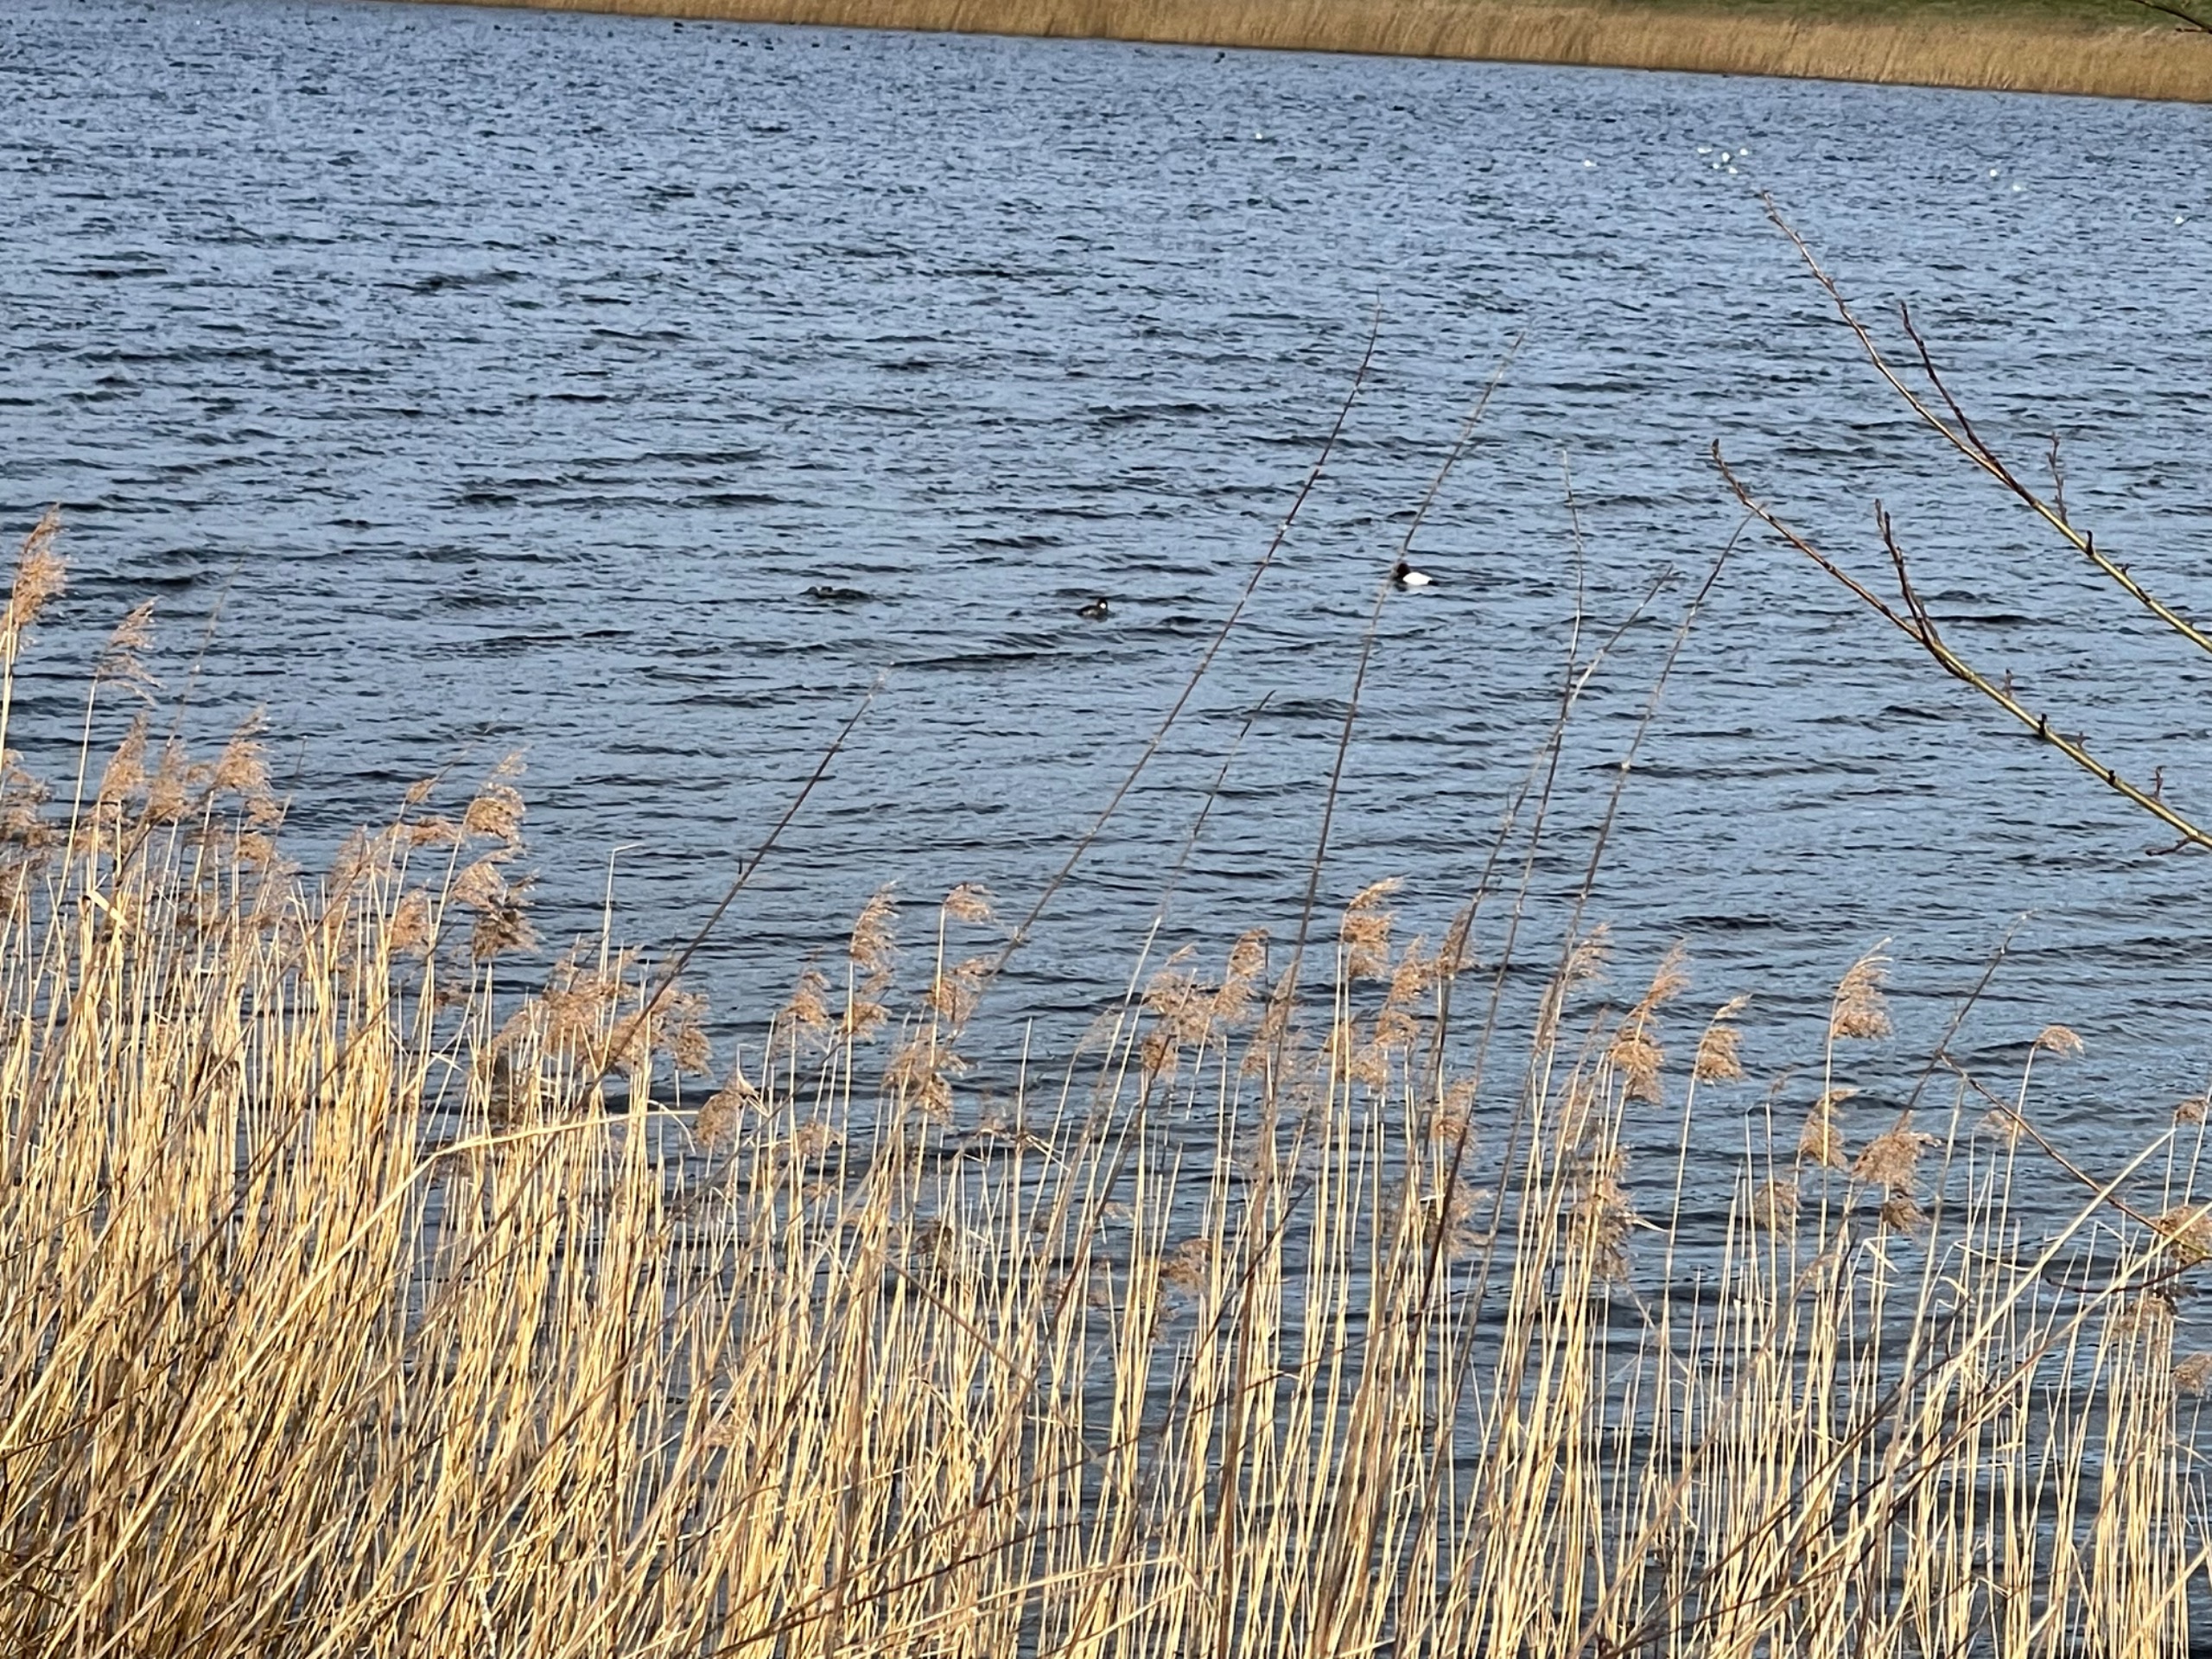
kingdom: Animalia
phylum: Chordata
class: Aves
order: Anseriformes
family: Anatidae
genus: Mergellus
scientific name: Mergellus albellus
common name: Lille skallesluger
